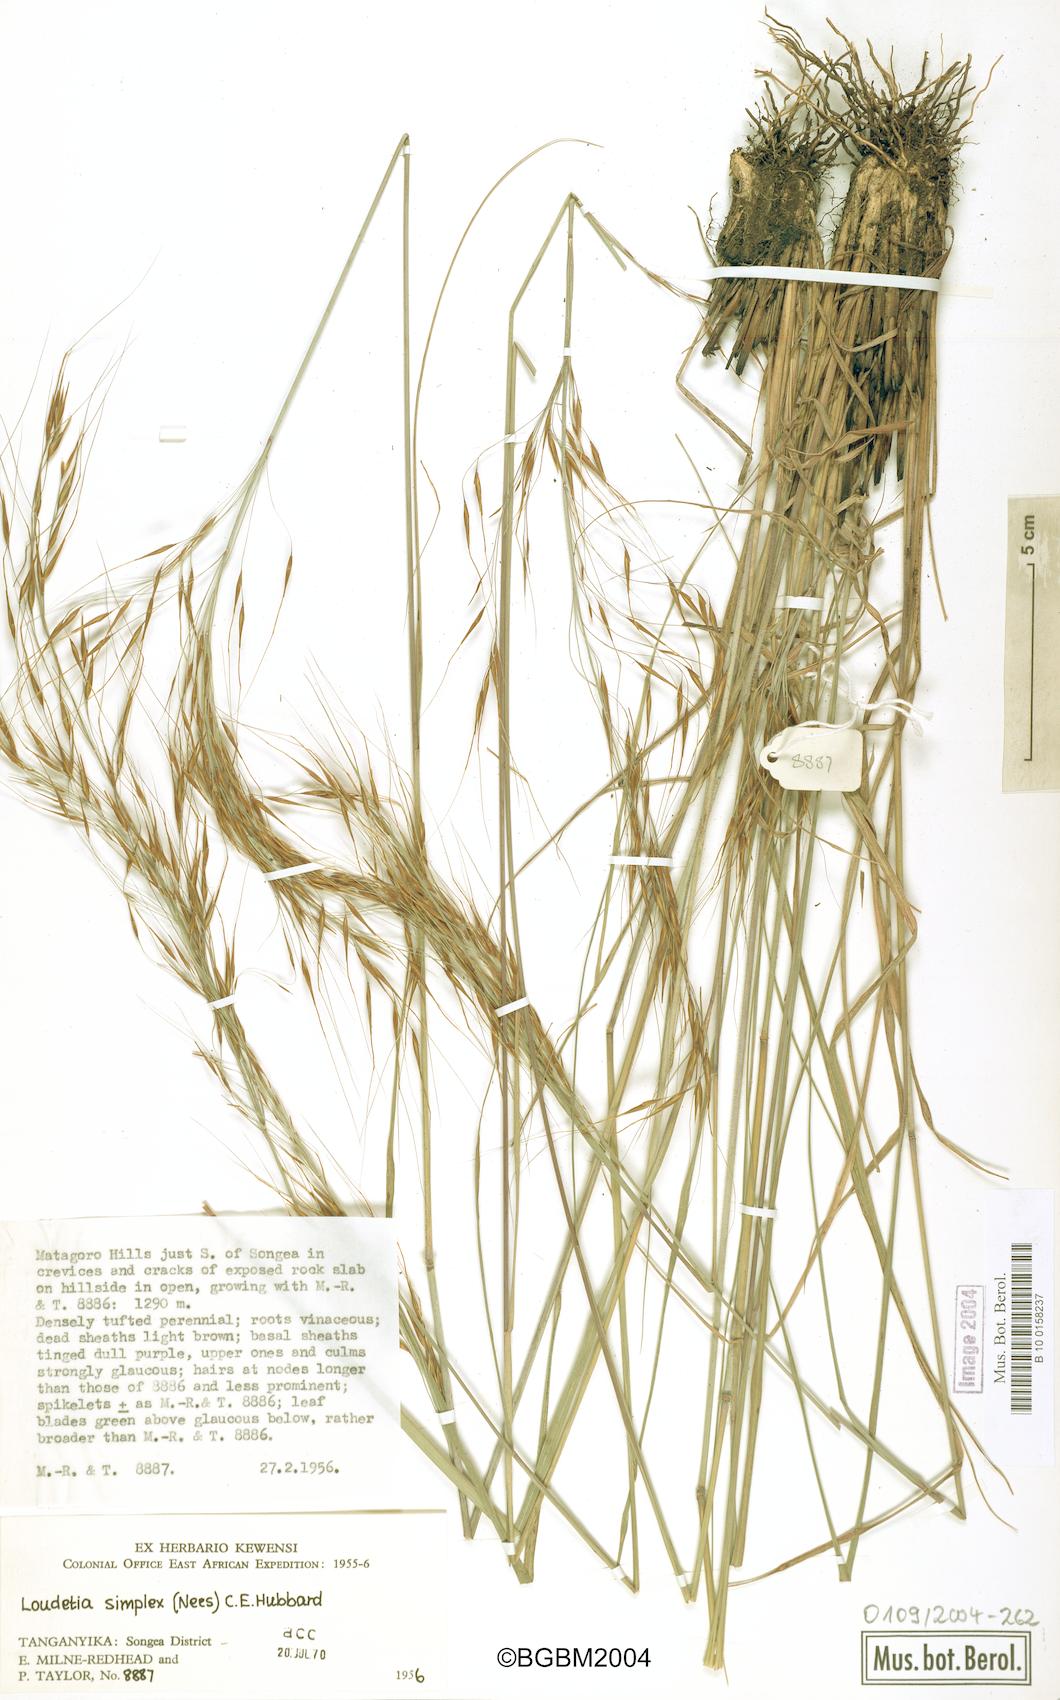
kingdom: Plantae
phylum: Tracheophyta
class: Liliopsida
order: Poales
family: Poaceae
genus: Loudetia
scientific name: Loudetia simplex
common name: Common russet grass
